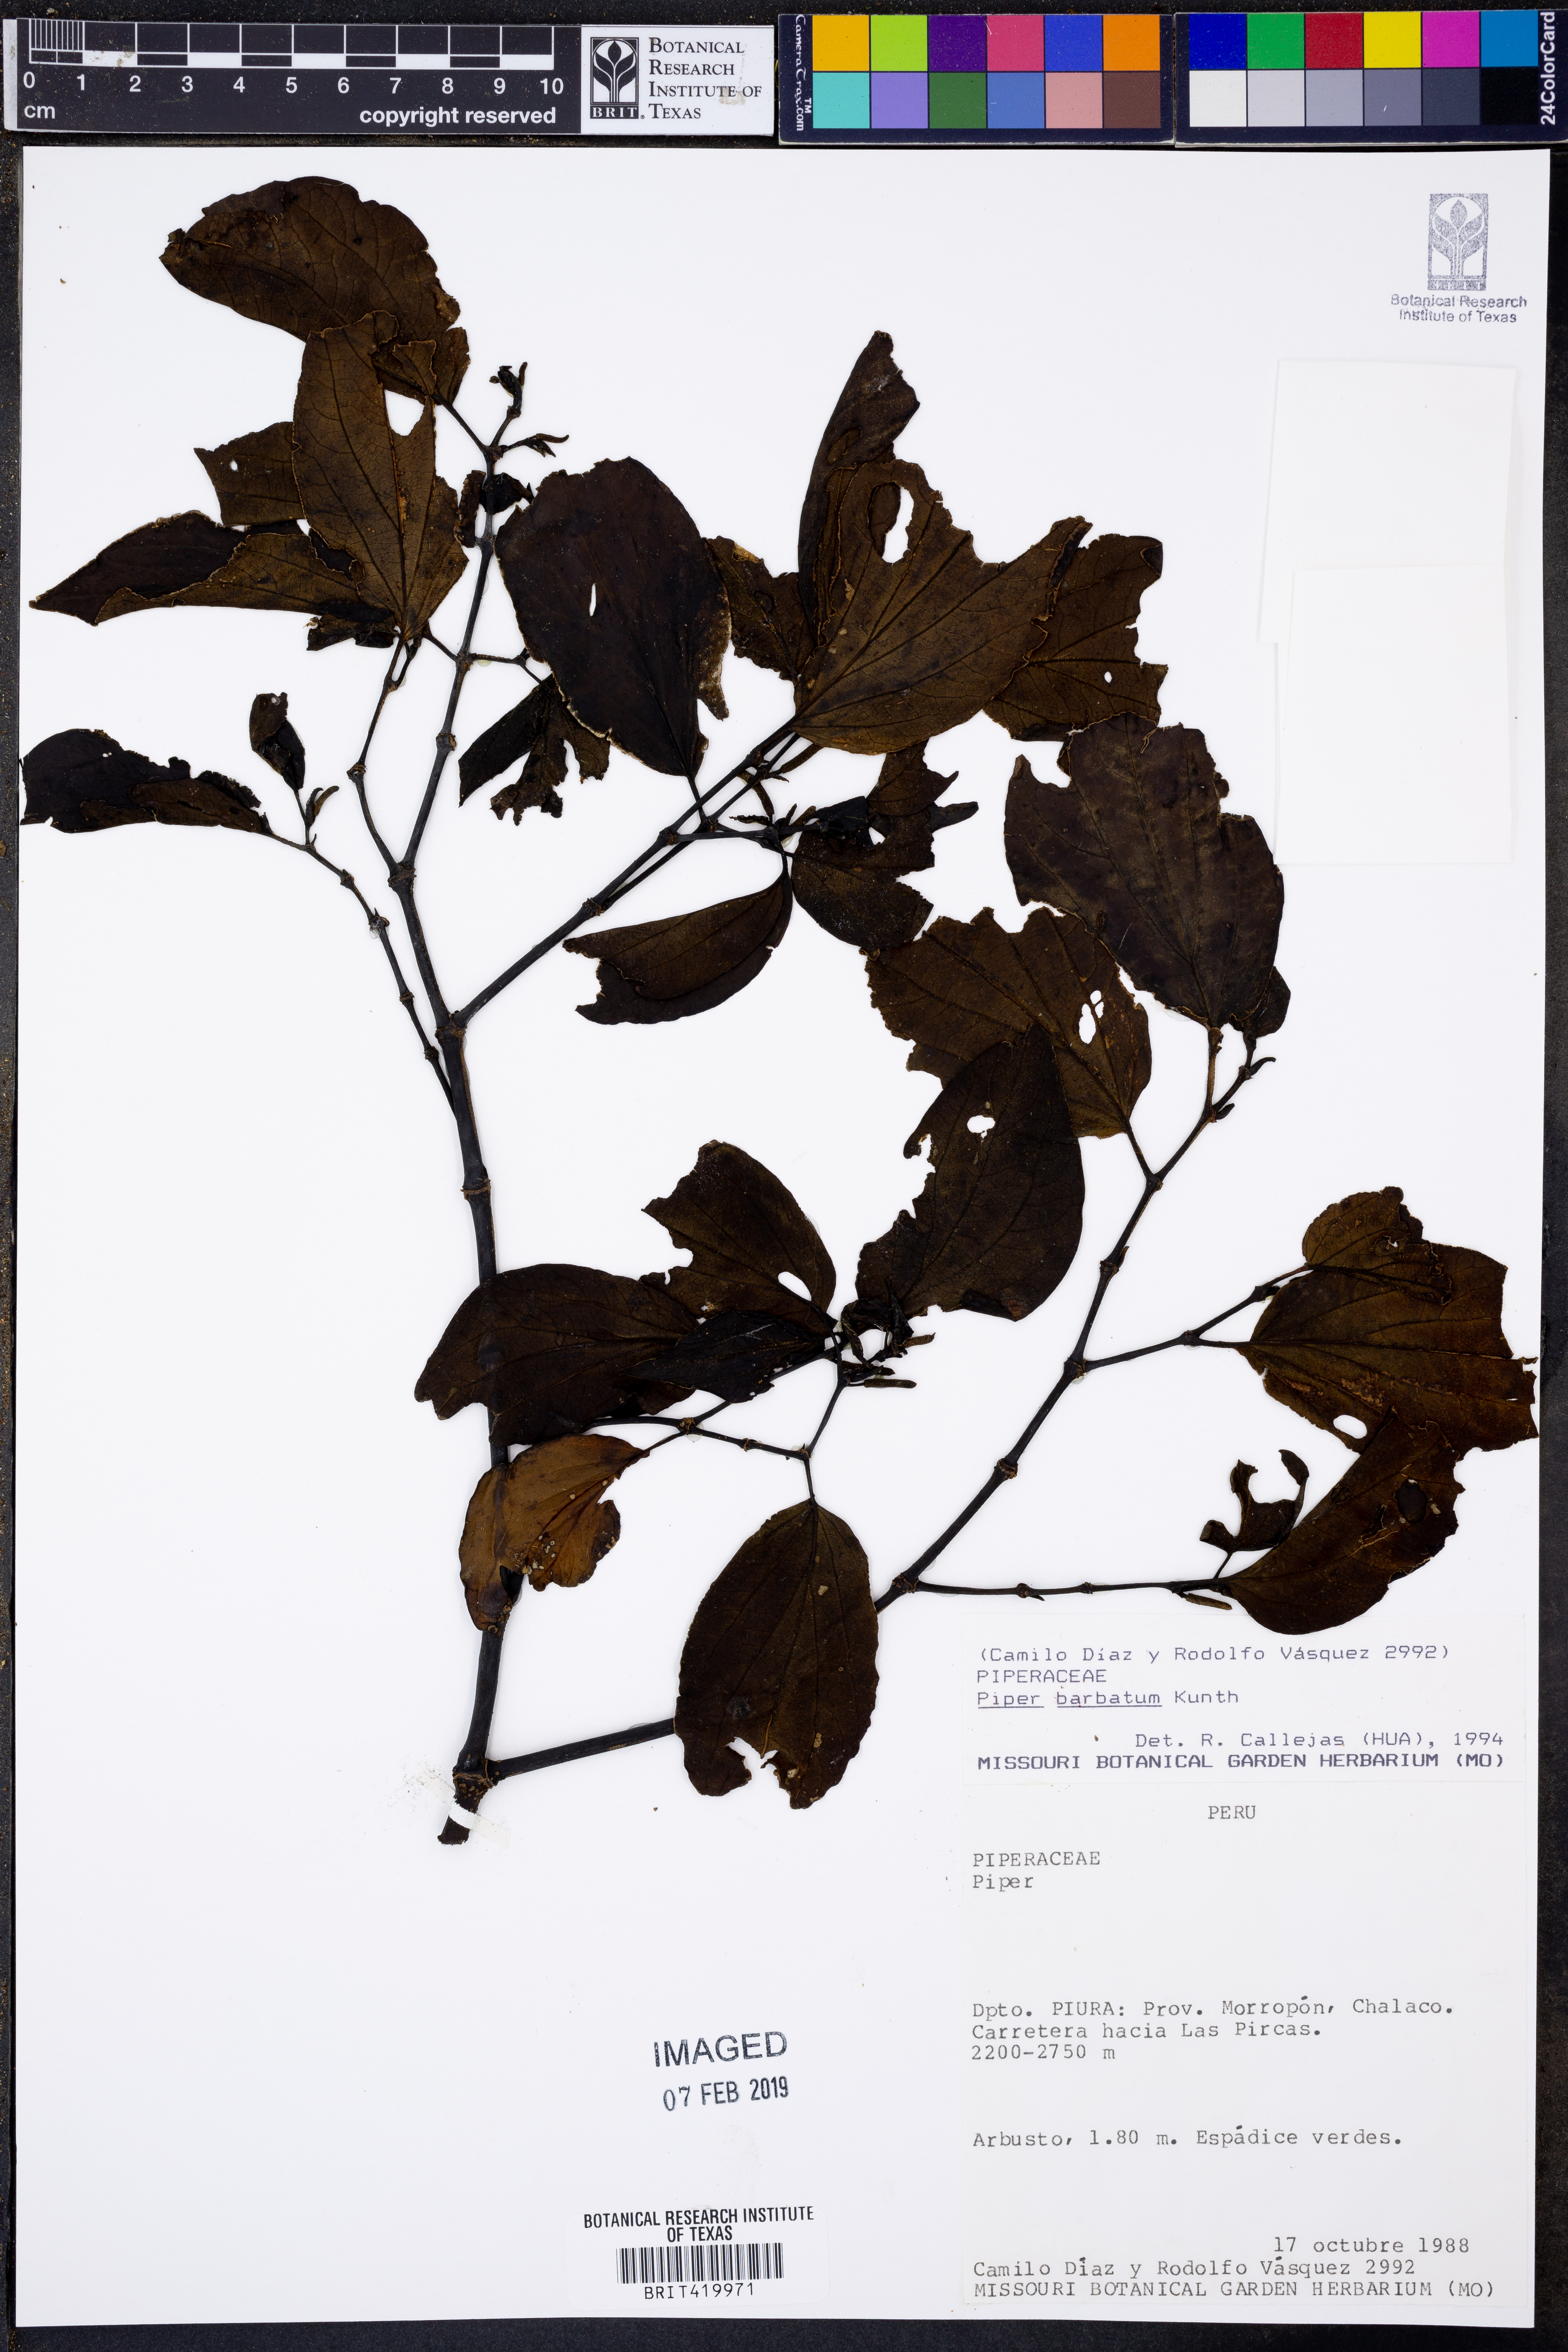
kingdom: Plantae
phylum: Tracheophyta
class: Magnoliopsida
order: Piperales
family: Piperaceae
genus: Piper
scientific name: Piper barbatum
